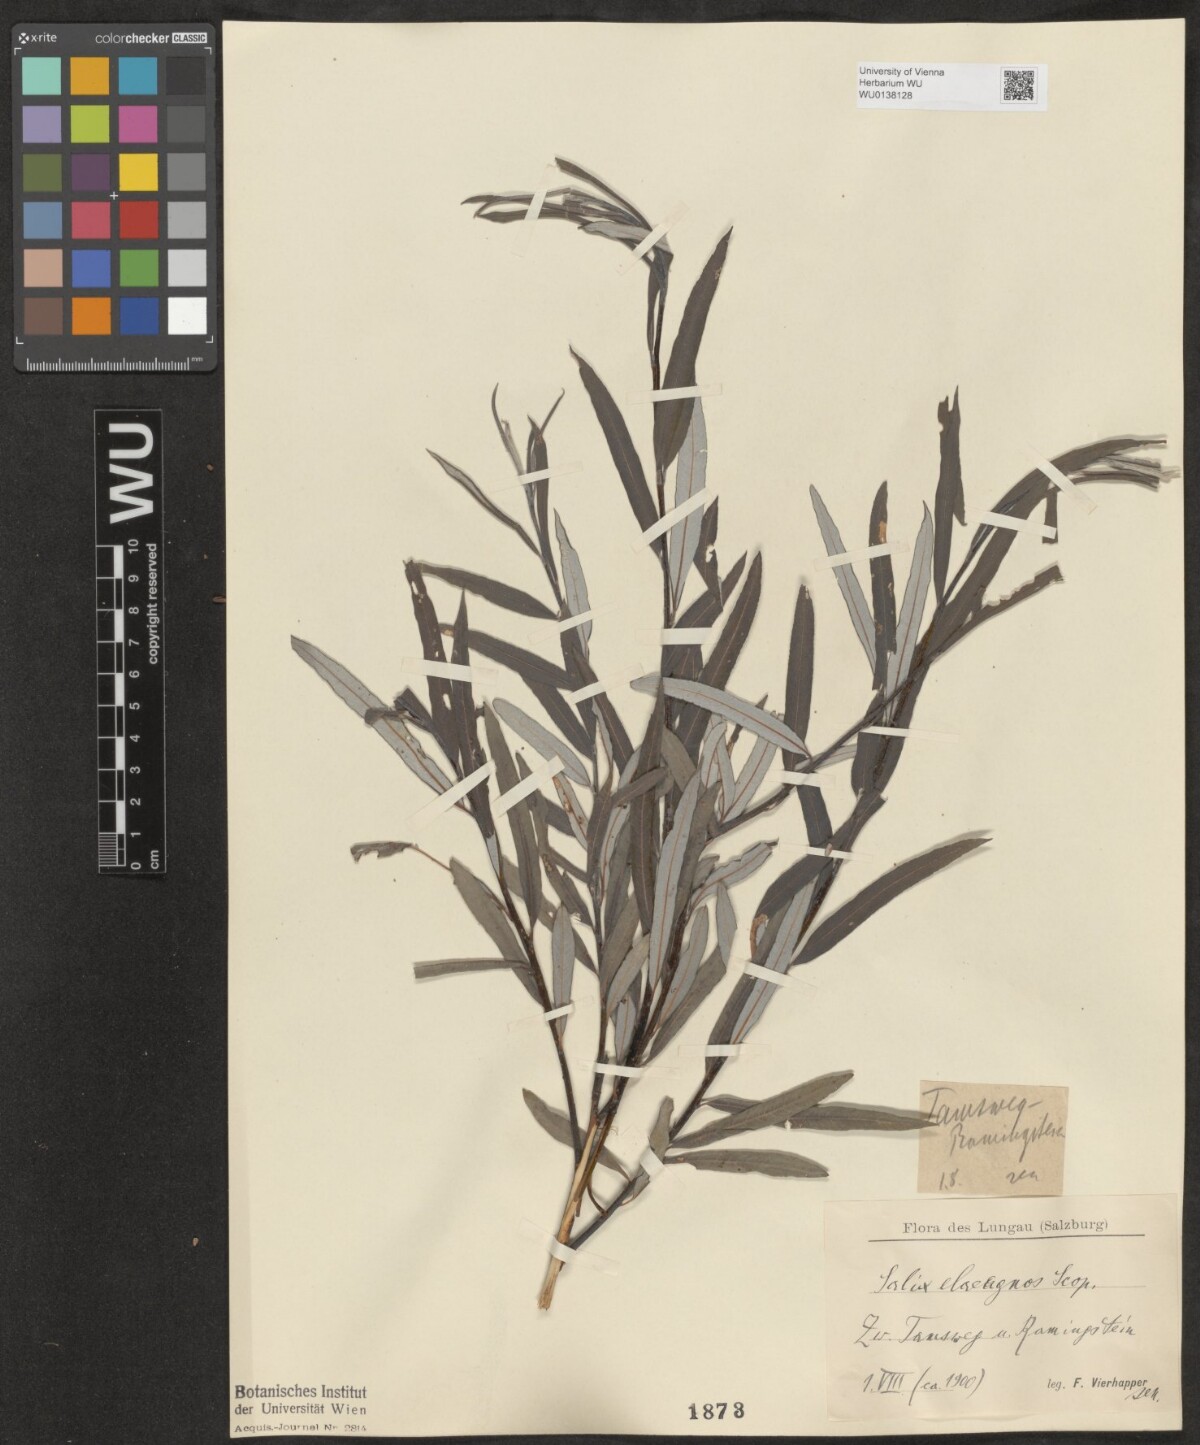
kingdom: Plantae
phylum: Tracheophyta
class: Magnoliopsida
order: Malpighiales
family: Salicaceae
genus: Salix
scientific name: Salix eleagnos
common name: Elaeagnus willow
